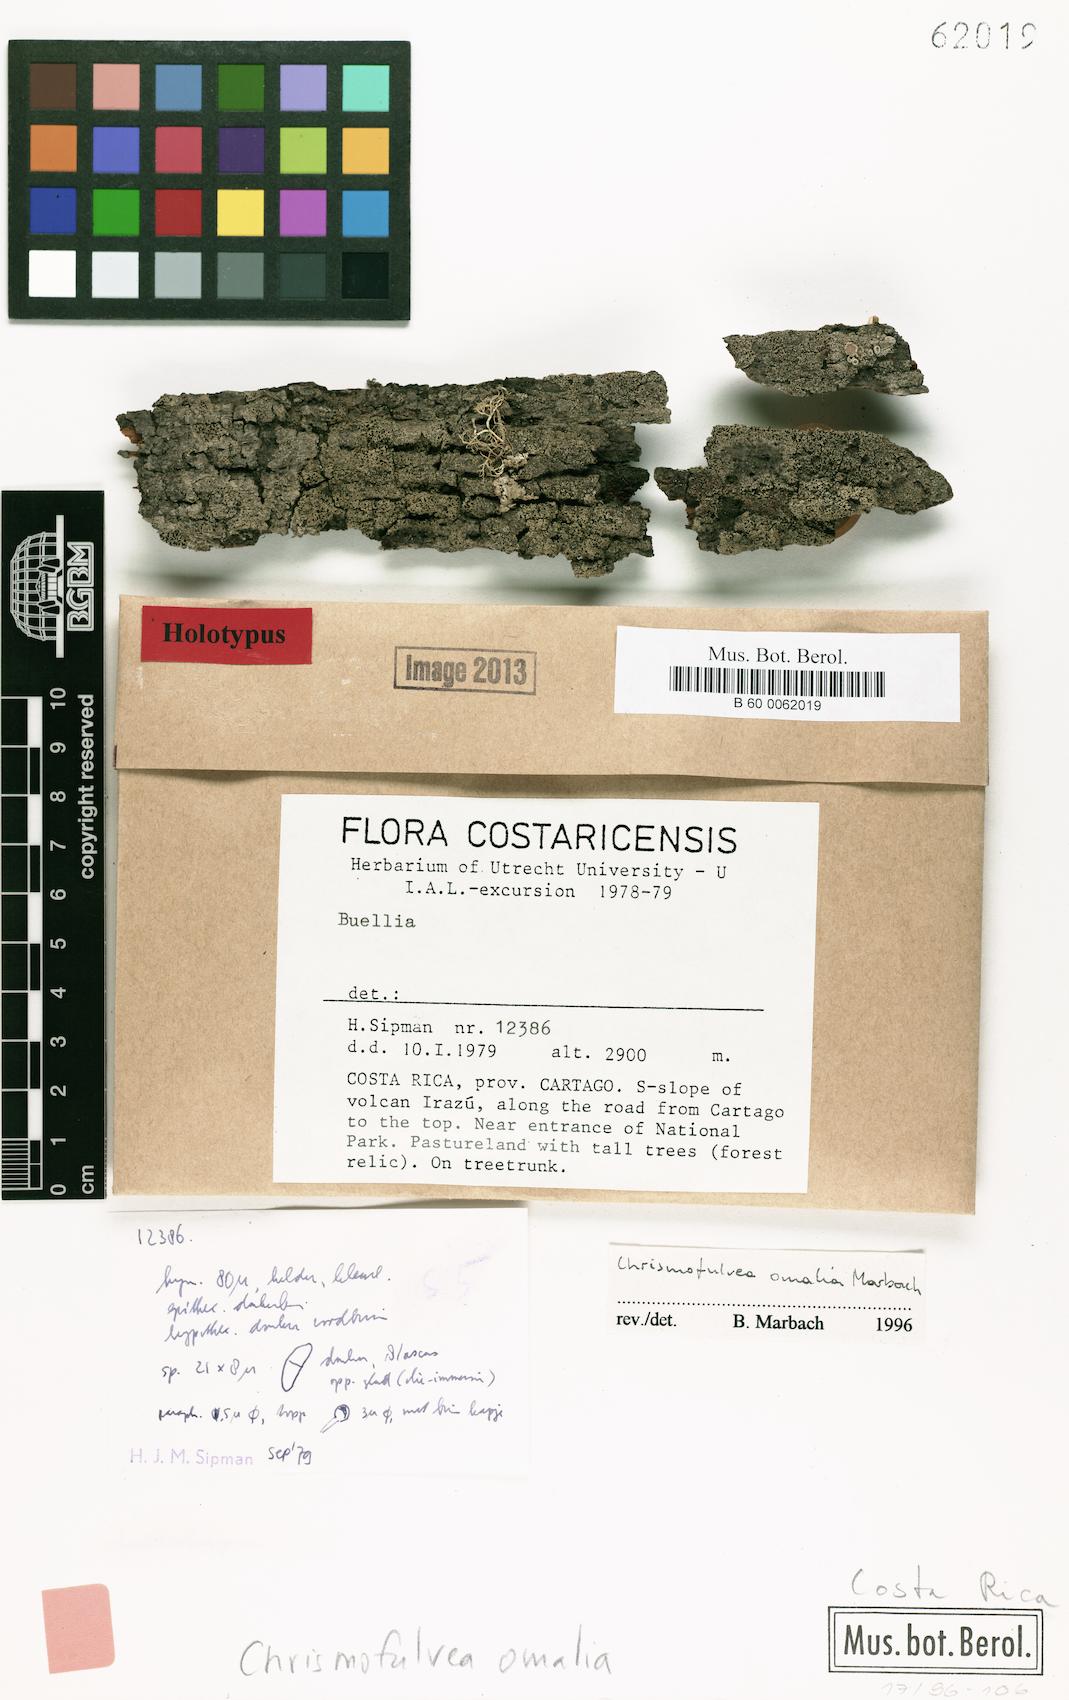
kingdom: Fungi
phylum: Ascomycota
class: Lecanoromycetes
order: Caliciales
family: Caliciaceae
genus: Chrismofulvea
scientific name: Chrismofulvea omalia
